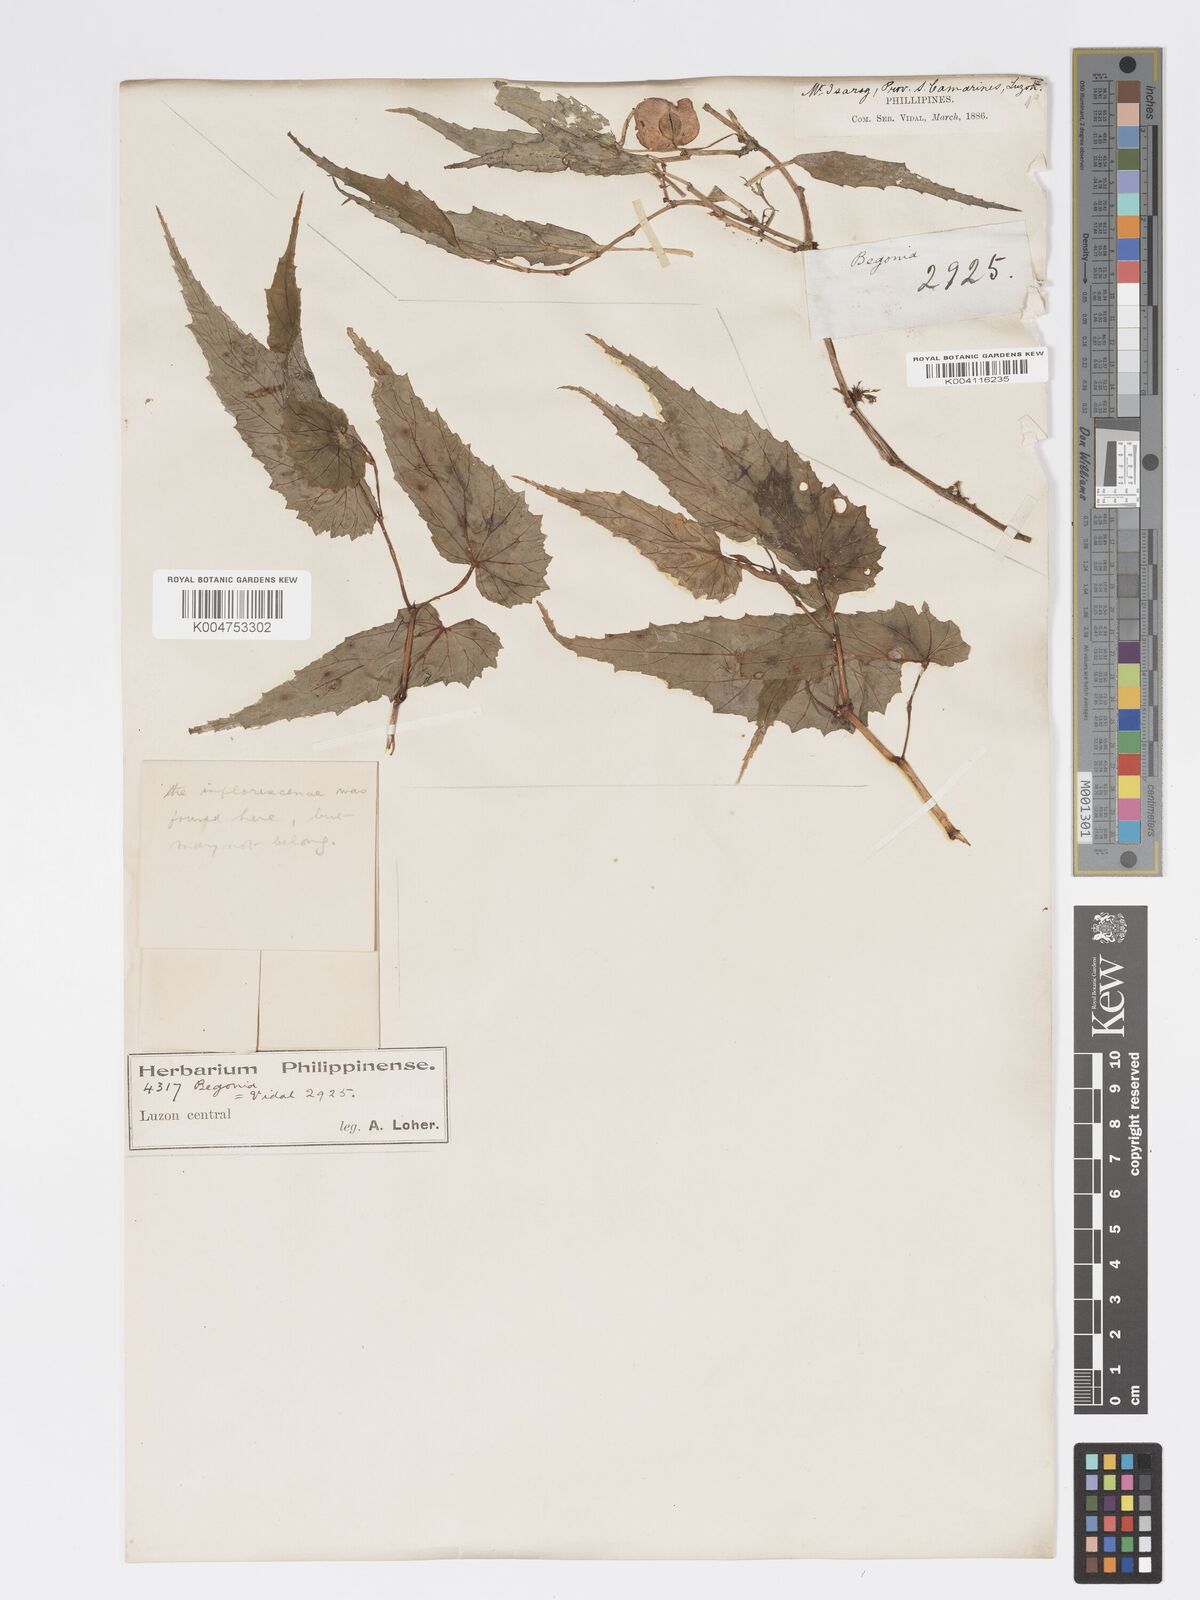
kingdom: Plantae
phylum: Tracheophyta
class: Magnoliopsida
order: Cucurbitales
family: Begoniaceae
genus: Begonia
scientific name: Begonia cumingiana
